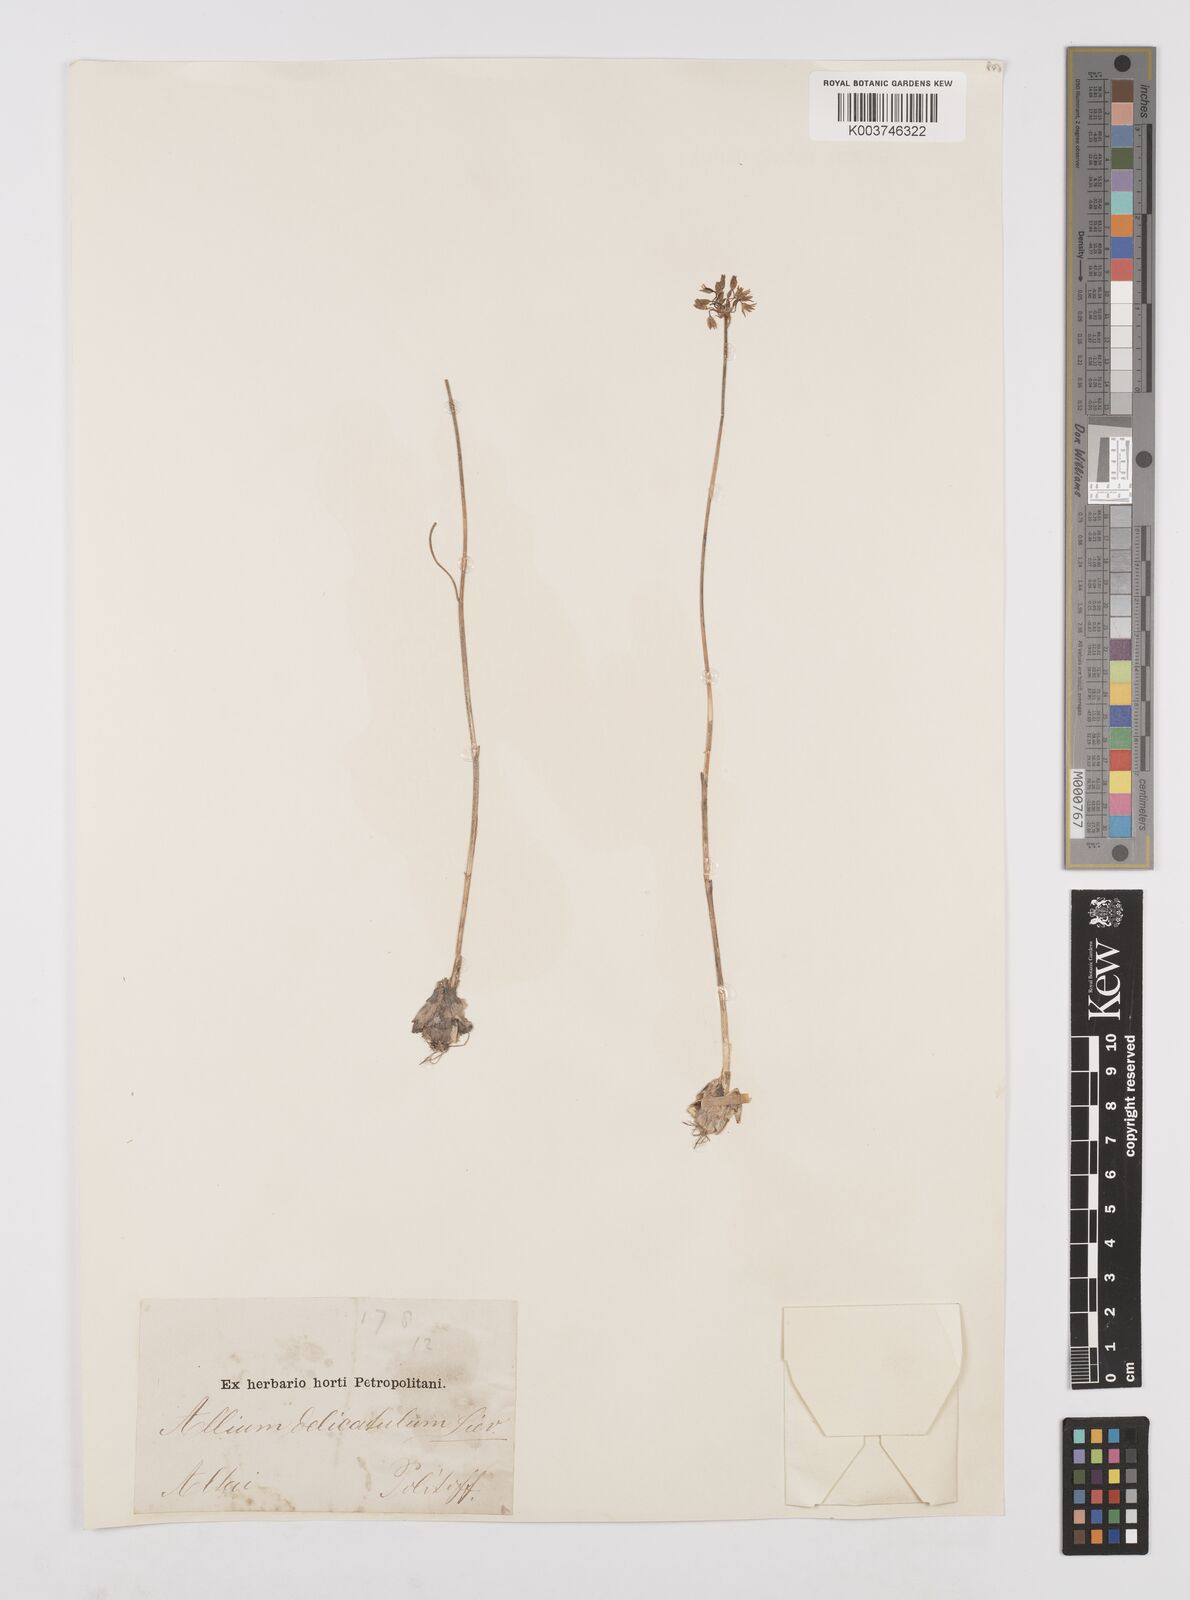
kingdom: Plantae
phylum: Tracheophyta
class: Liliopsida
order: Asparagales
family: Amaryllidaceae
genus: Allium
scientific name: Allium delicatulum
